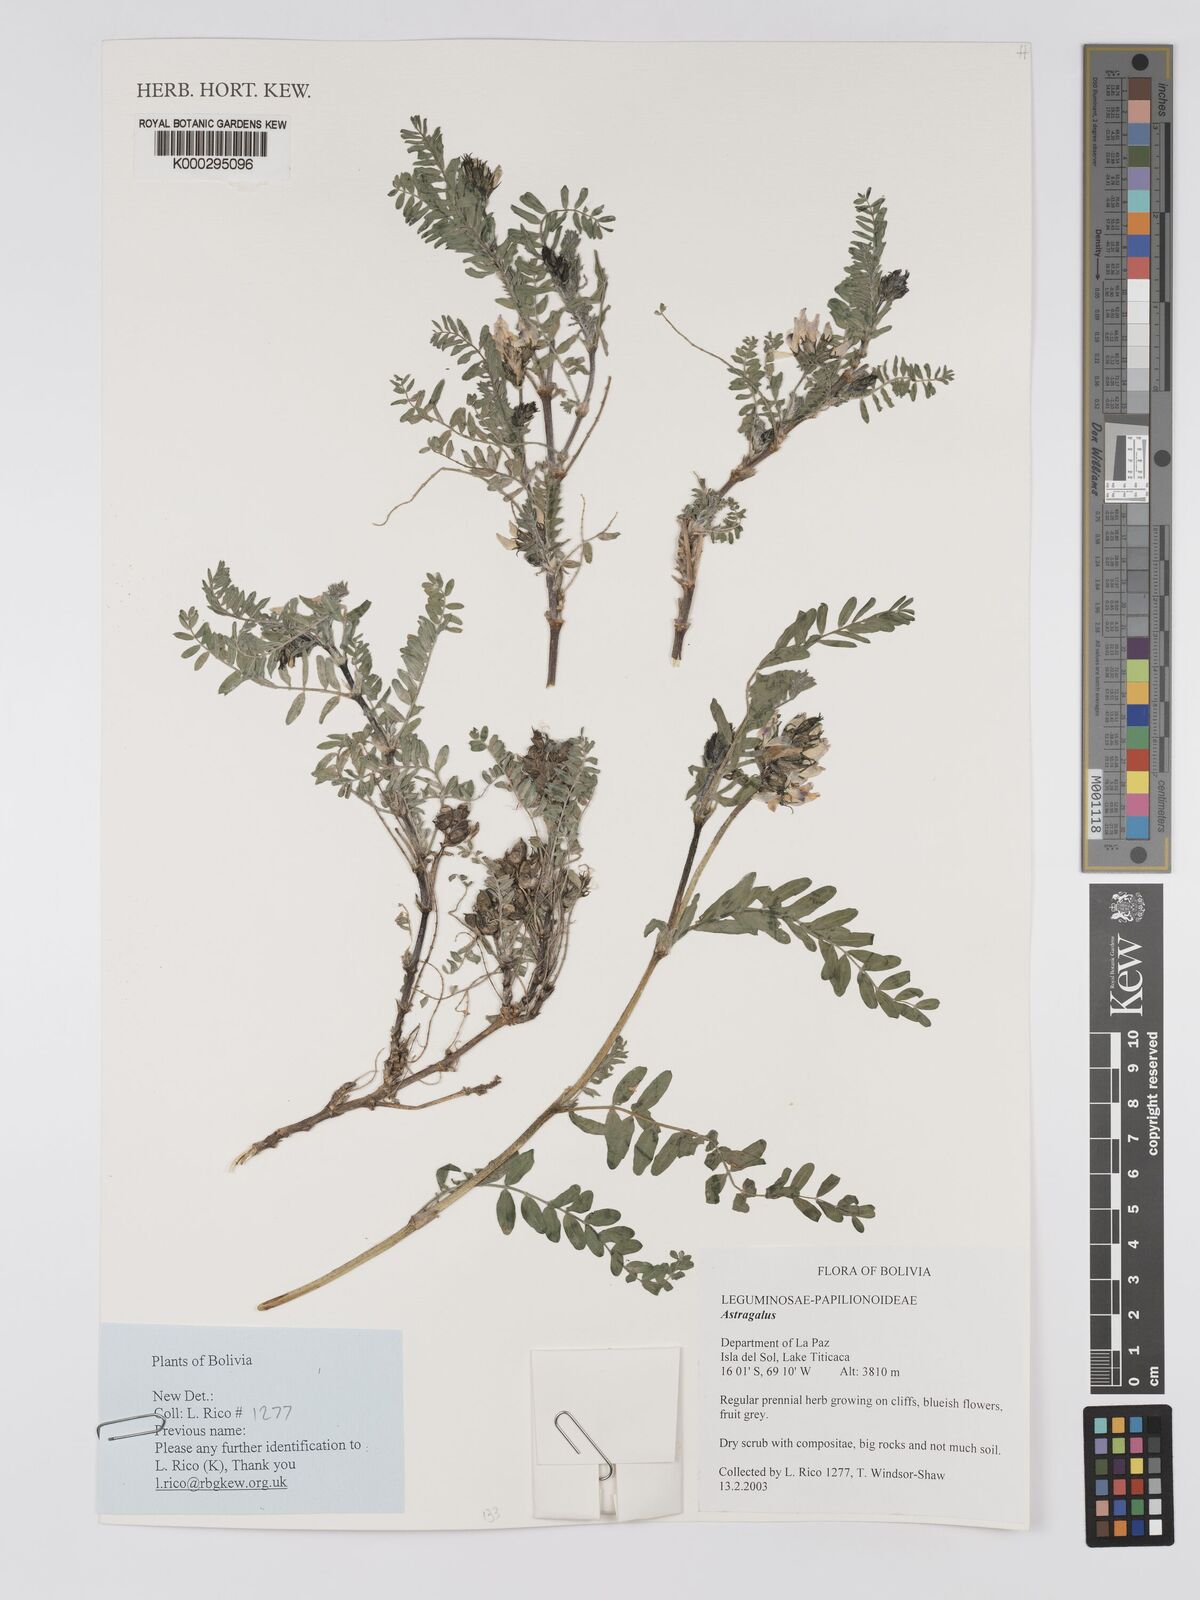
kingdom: Plantae
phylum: Tracheophyta
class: Magnoliopsida
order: Fabales
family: Fabaceae
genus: Astragalus
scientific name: Astragalus
